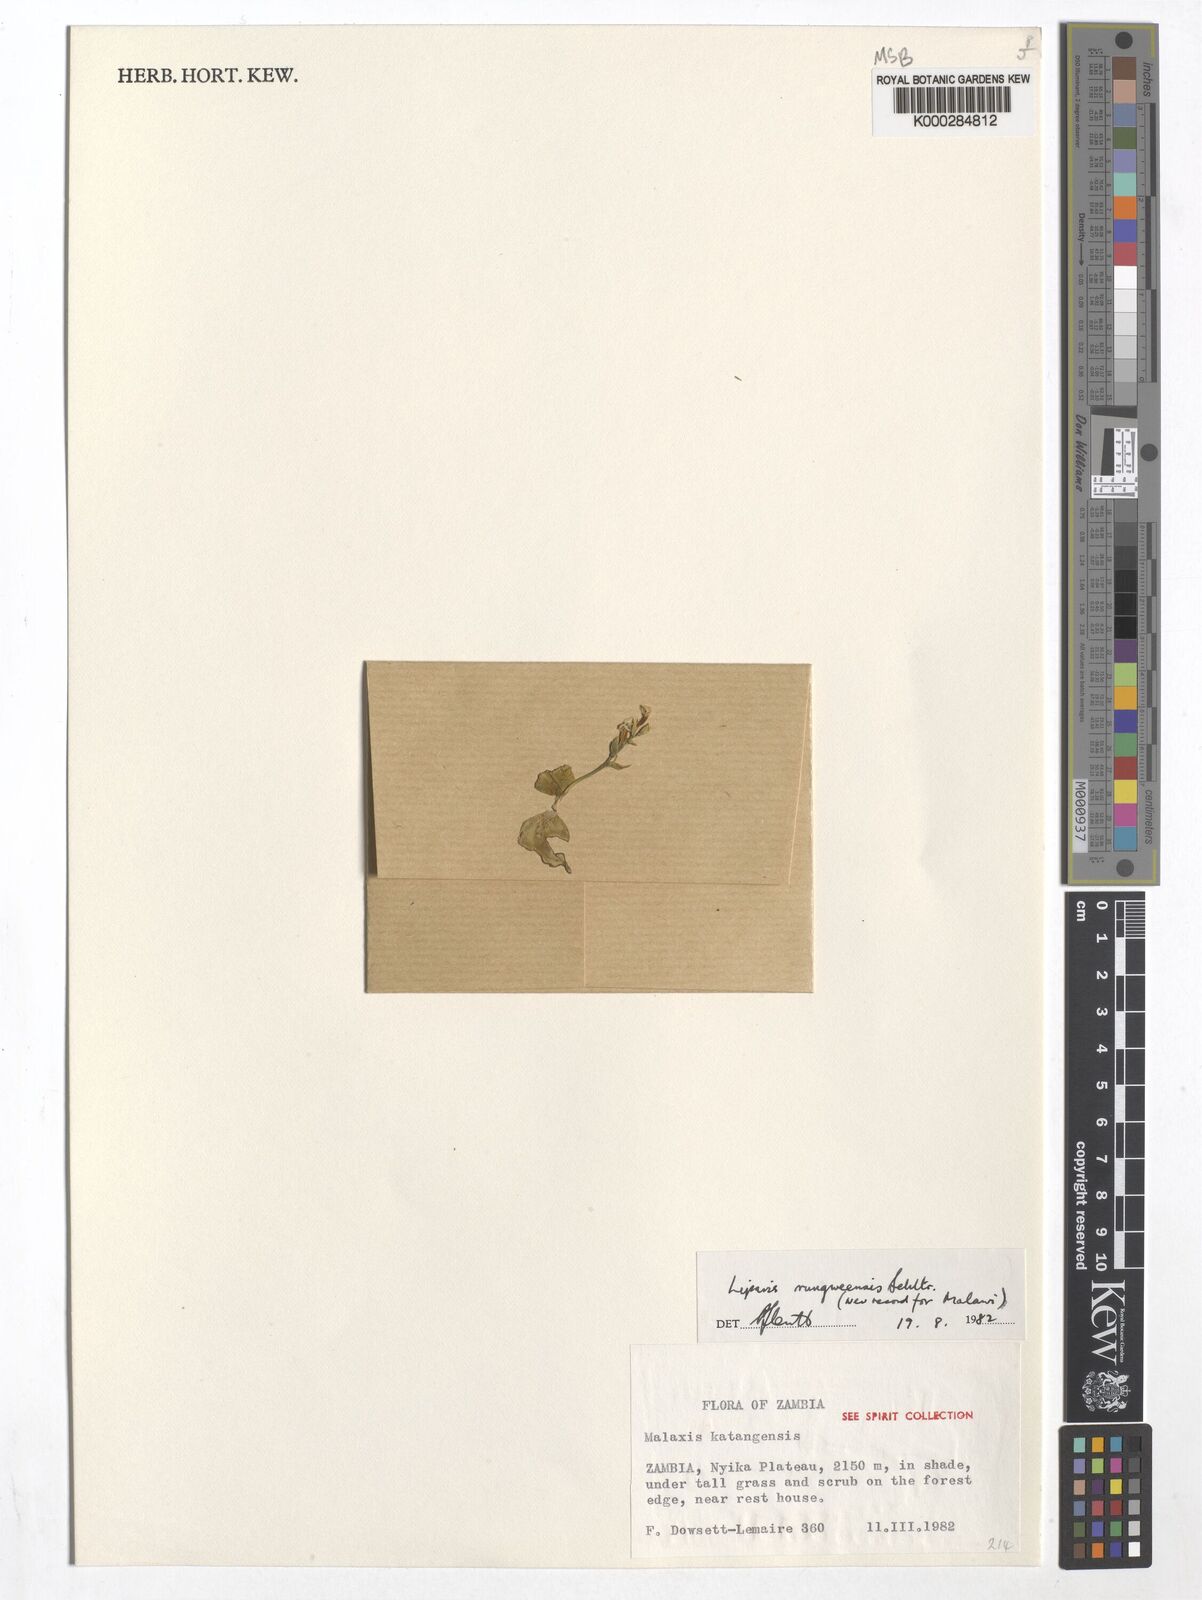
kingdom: Plantae
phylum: Tracheophyta
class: Liliopsida
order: Asparagales
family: Orchidaceae
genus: Liparis
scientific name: Liparis rungweensis
